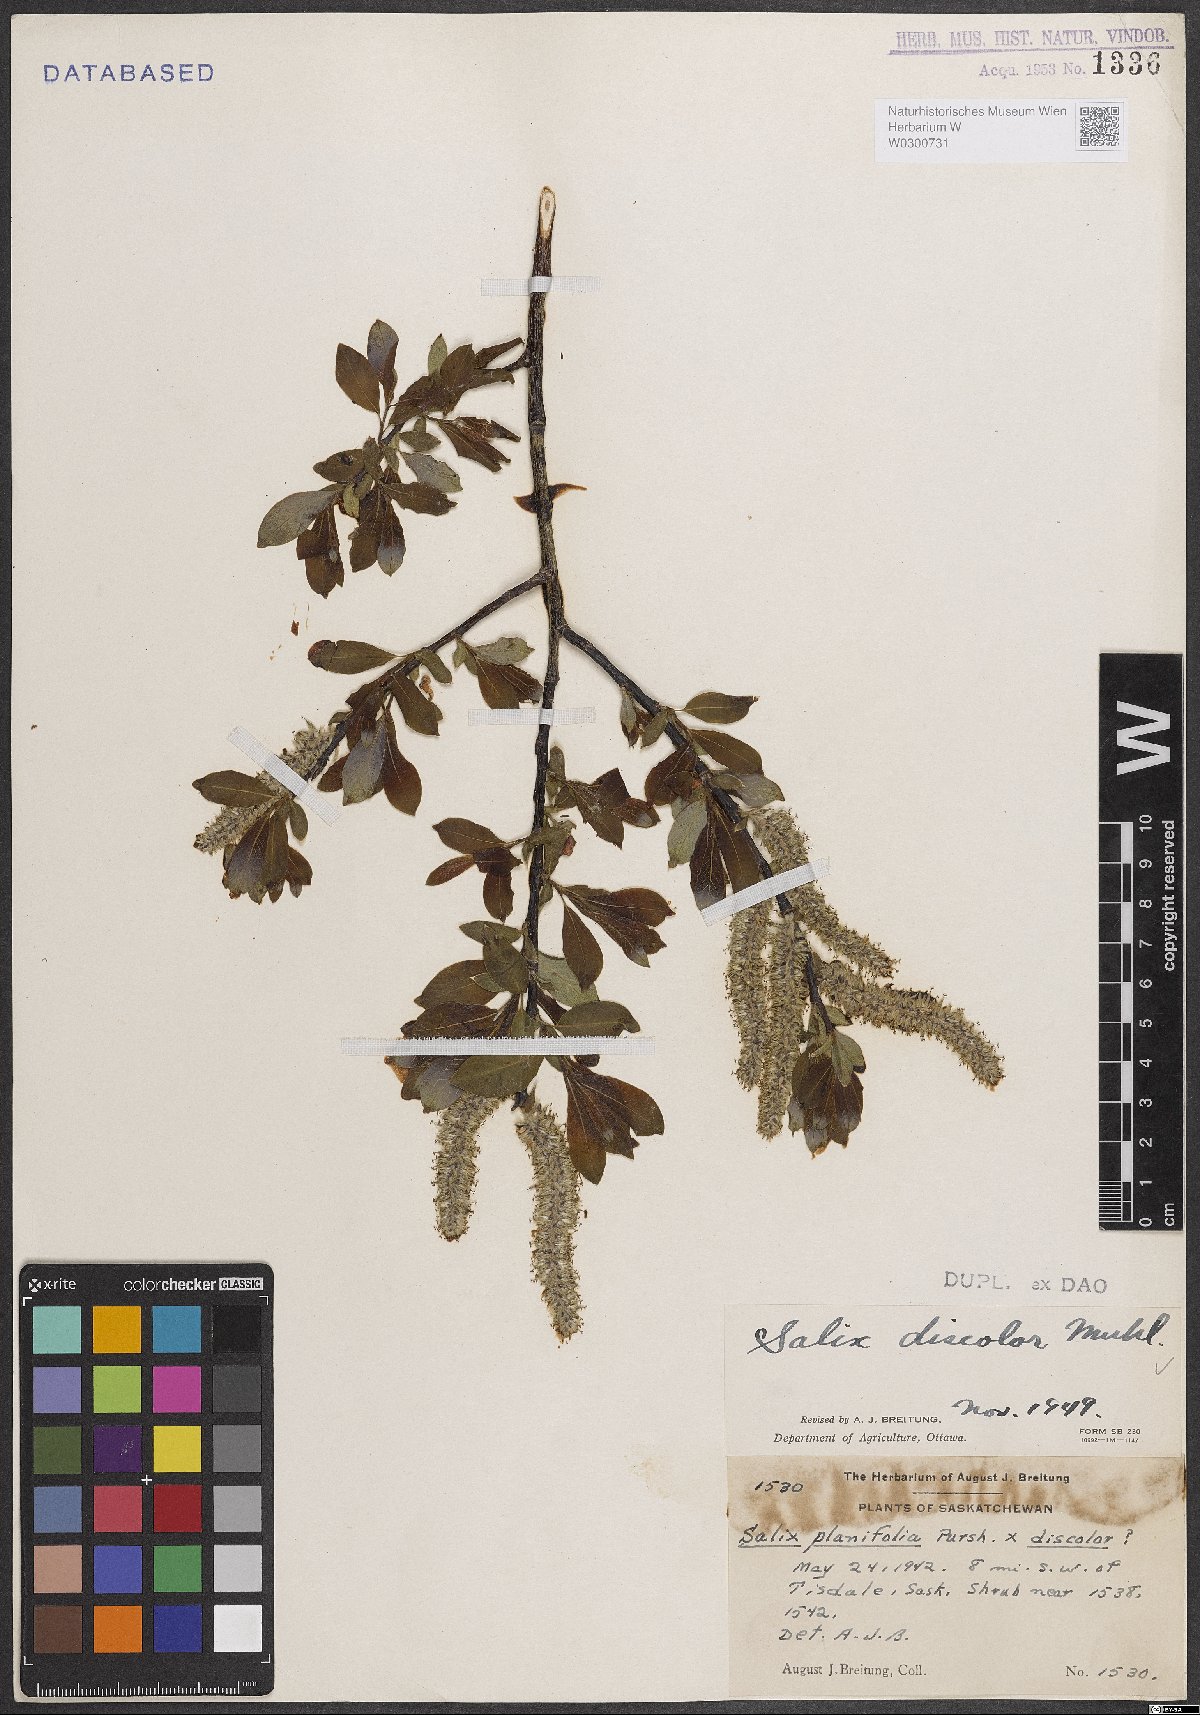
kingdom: Plantae
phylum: Tracheophyta
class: Magnoliopsida
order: Malpighiales
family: Salicaceae
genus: Salix
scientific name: Salix discolor
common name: Glaucous willow
